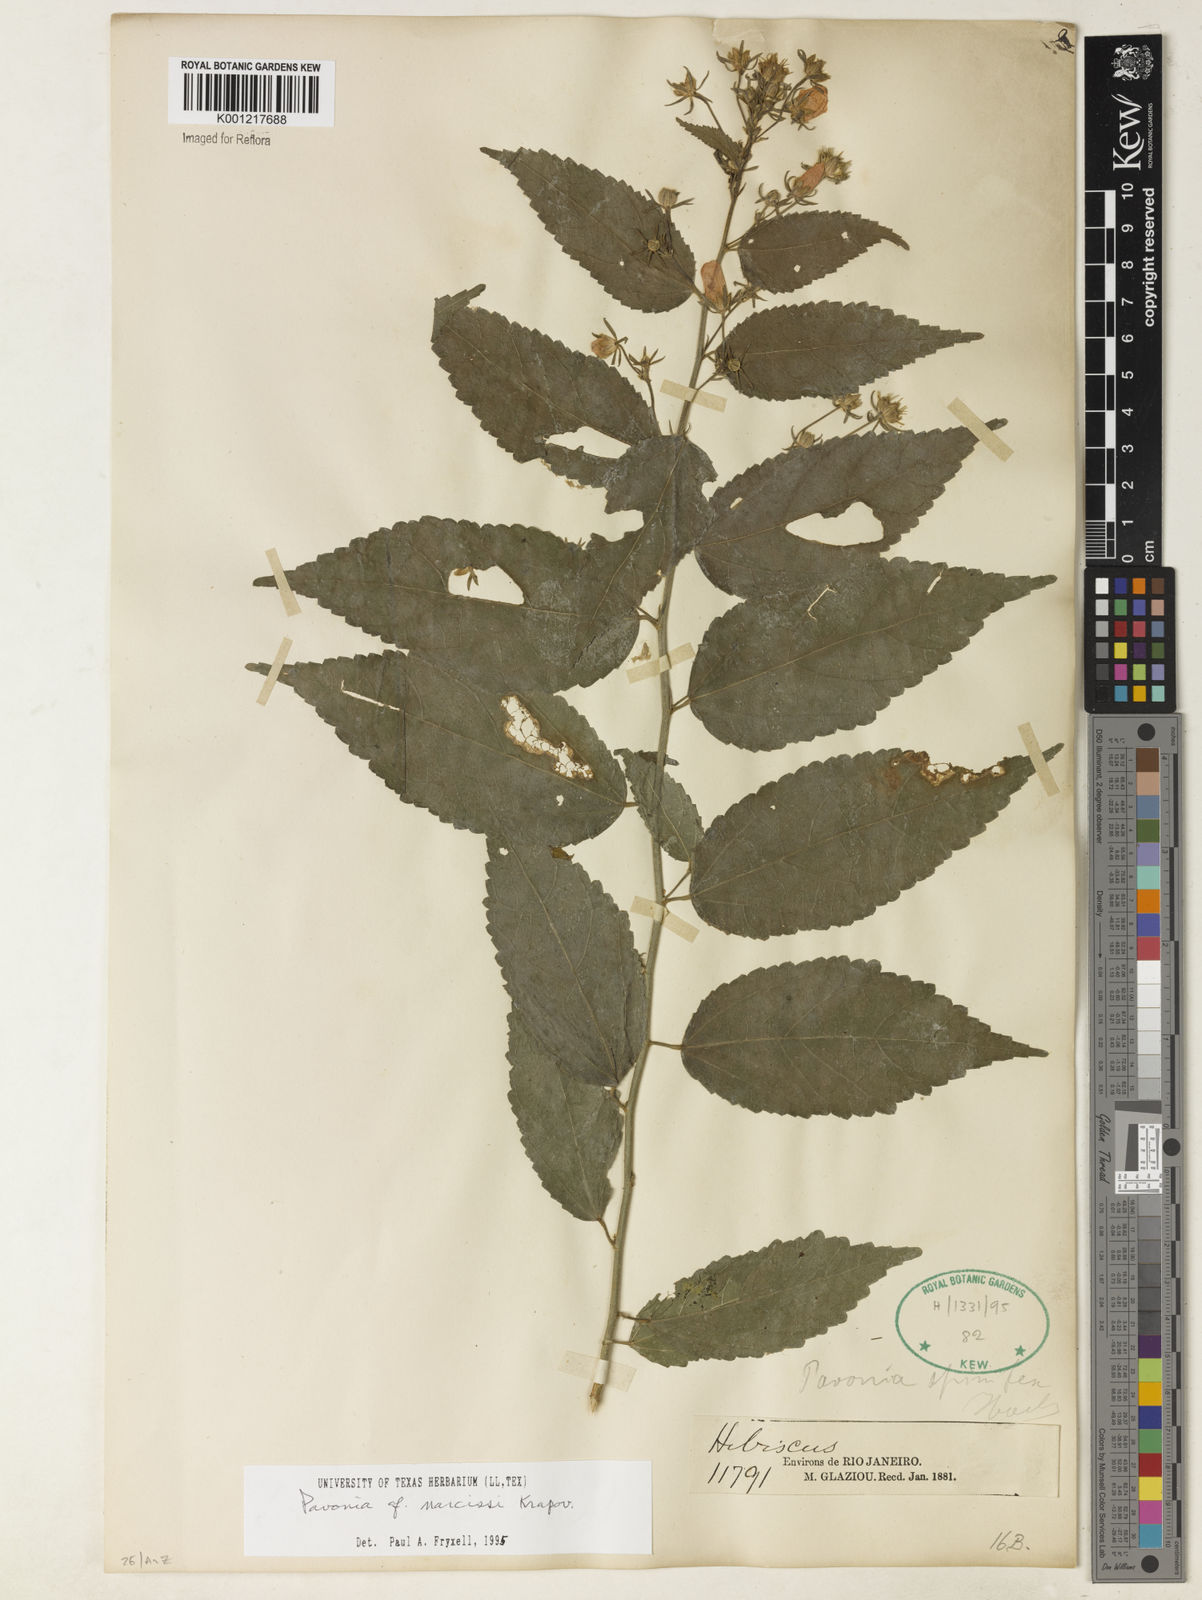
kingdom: Plantae
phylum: Tracheophyta
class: Magnoliopsida
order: Malvales
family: Malvaceae
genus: Pavonia
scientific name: Pavonia narcissi
